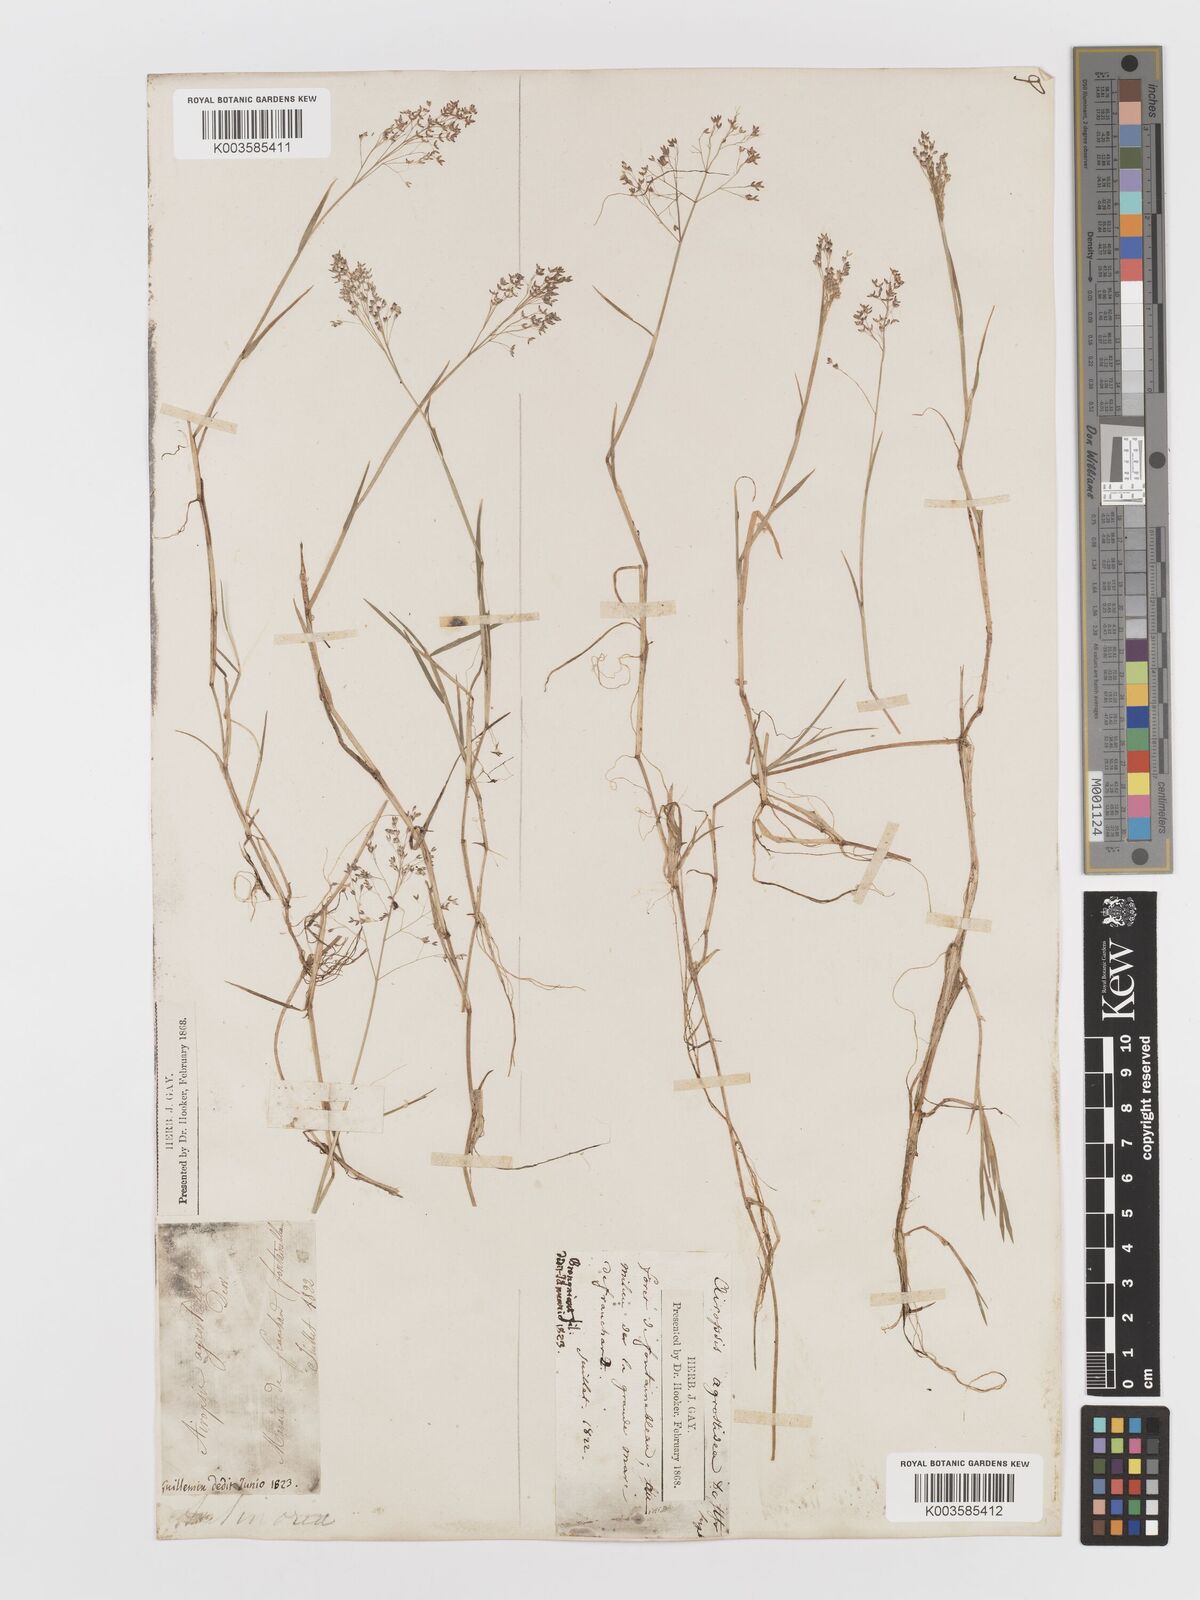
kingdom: Plantae
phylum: Tracheophyta
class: Liliopsida
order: Poales
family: Poaceae
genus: Antinoria
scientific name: Antinoria agrostidea
